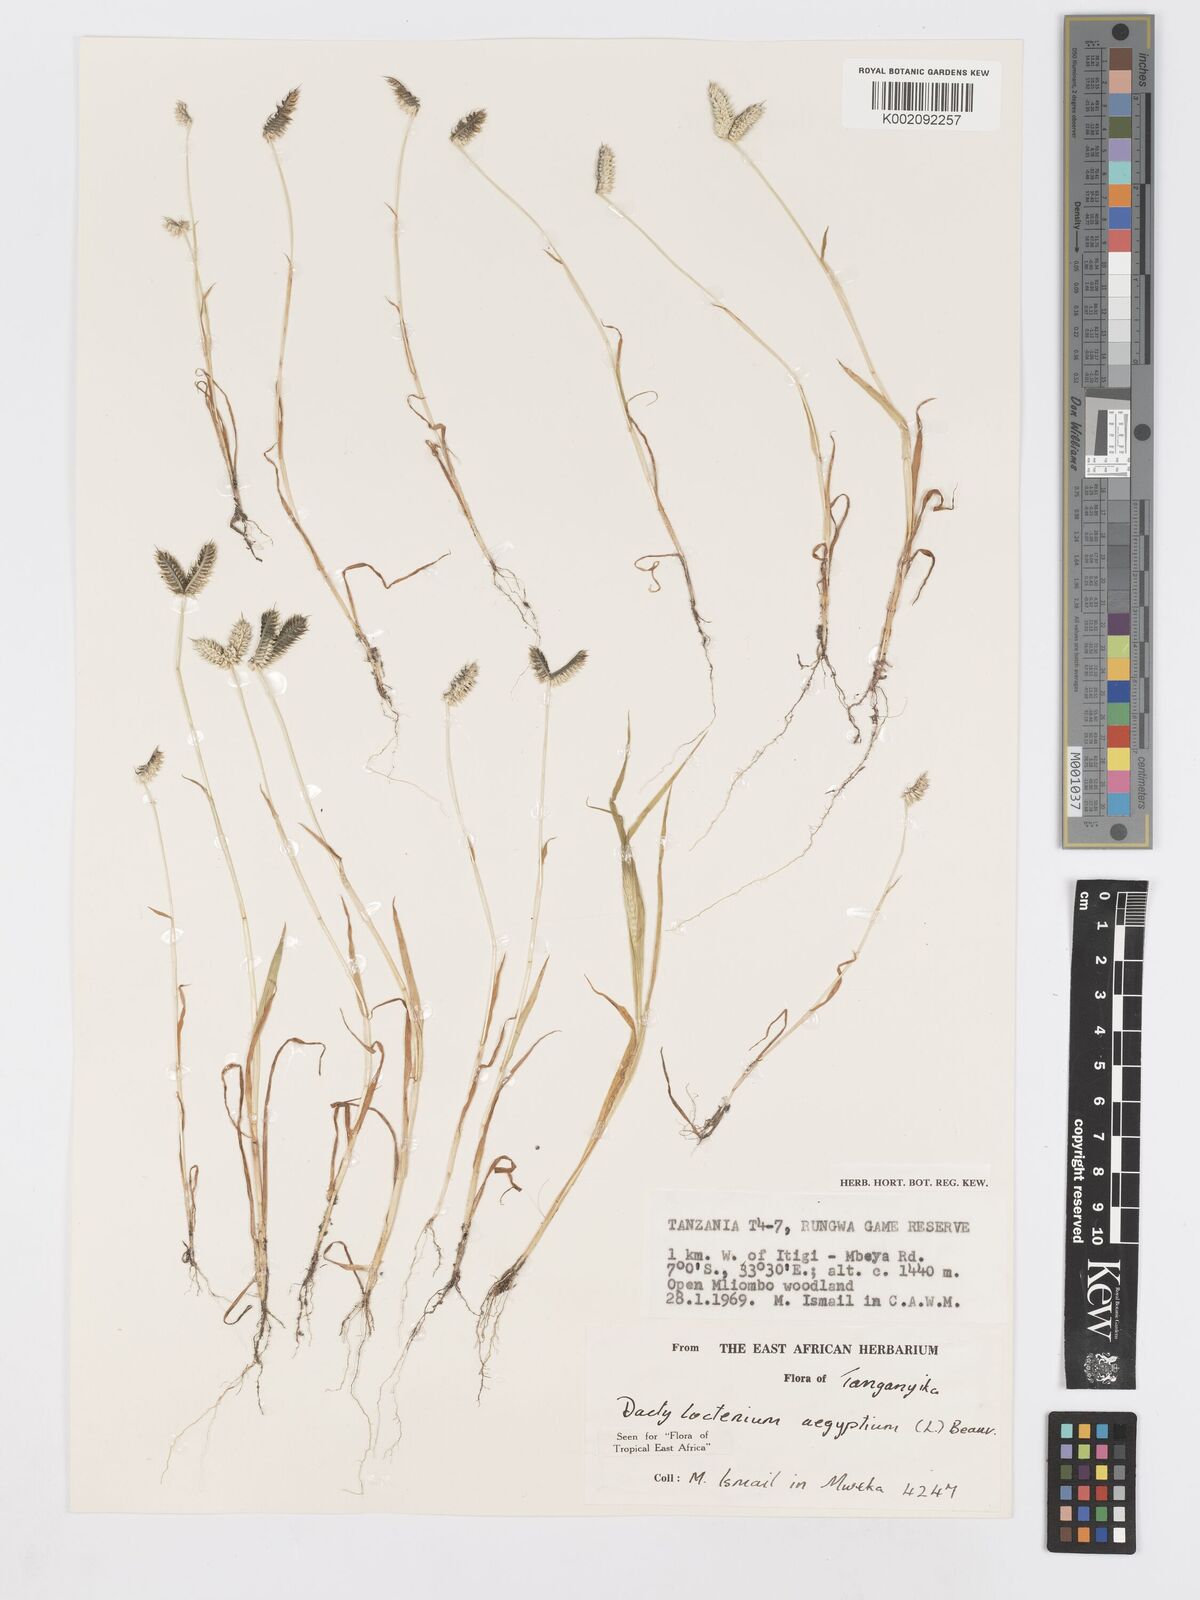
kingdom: Plantae
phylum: Tracheophyta
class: Liliopsida
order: Poales
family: Poaceae
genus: Dactyloctenium
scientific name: Dactyloctenium aegyptium
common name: Egyptian grass
